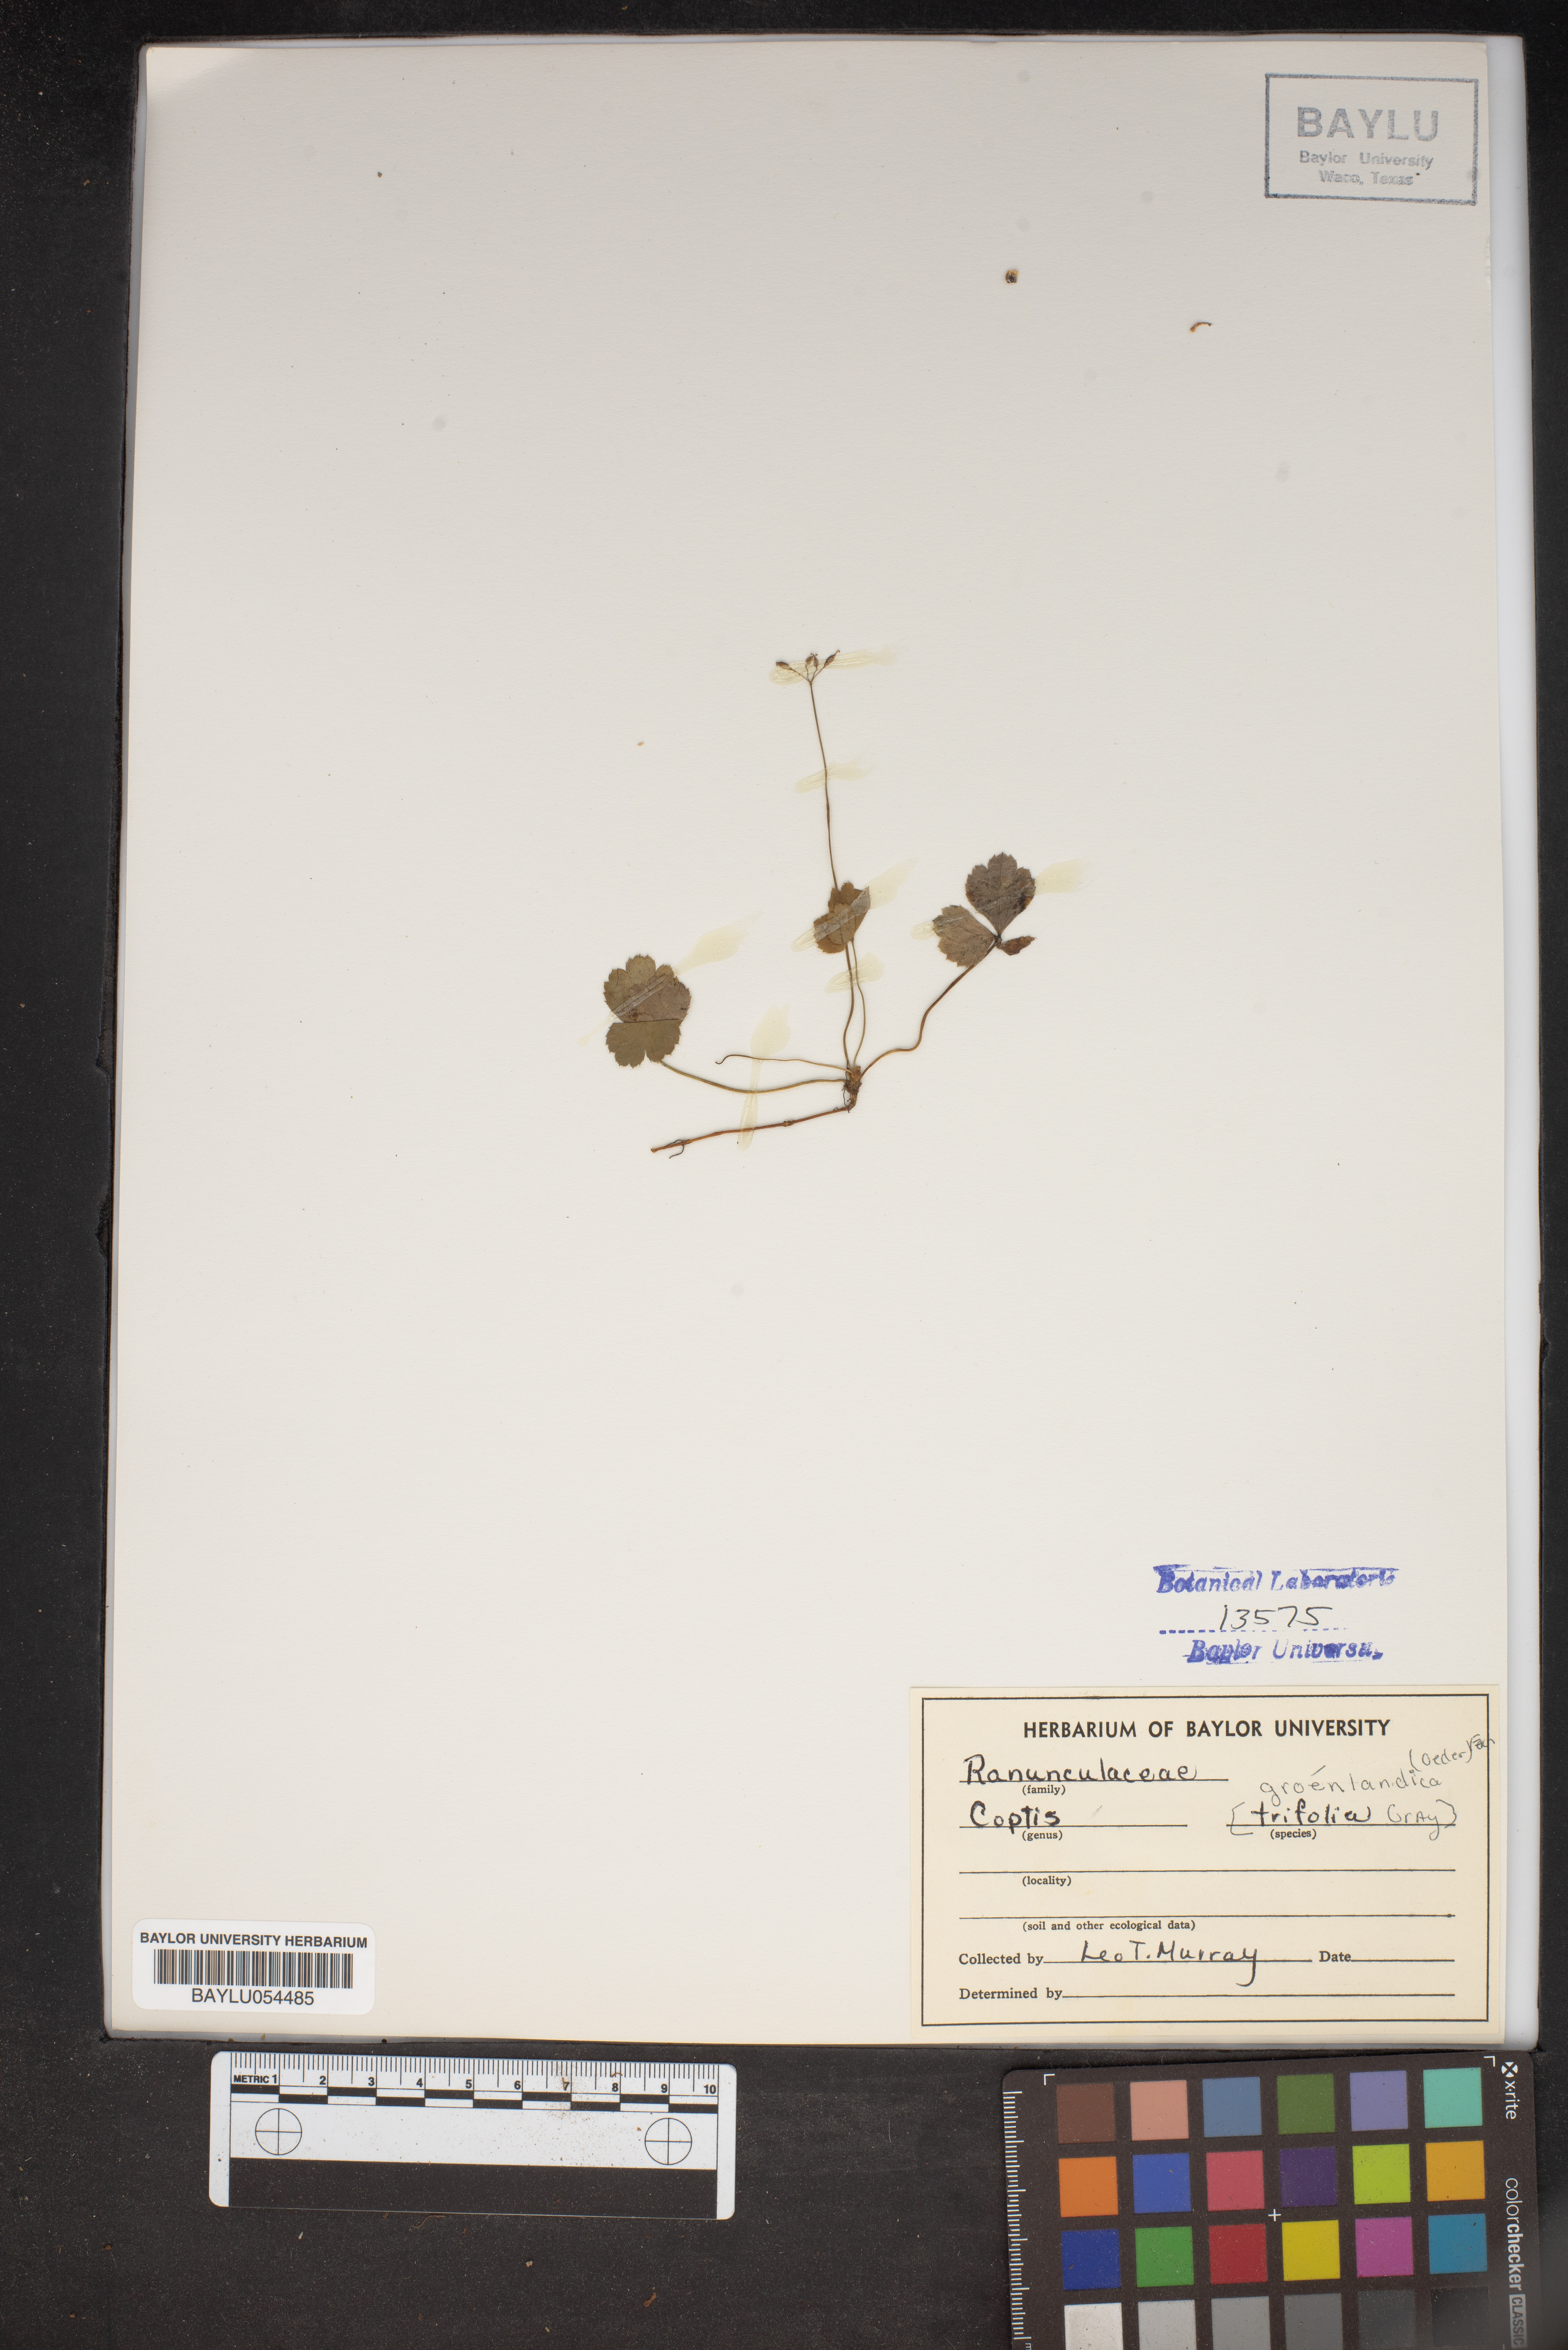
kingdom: Plantae
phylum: Tracheophyta
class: Magnoliopsida
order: Ranunculales
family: Ranunculaceae
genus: Coptis
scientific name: Coptis trifolia
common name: Canker-root
